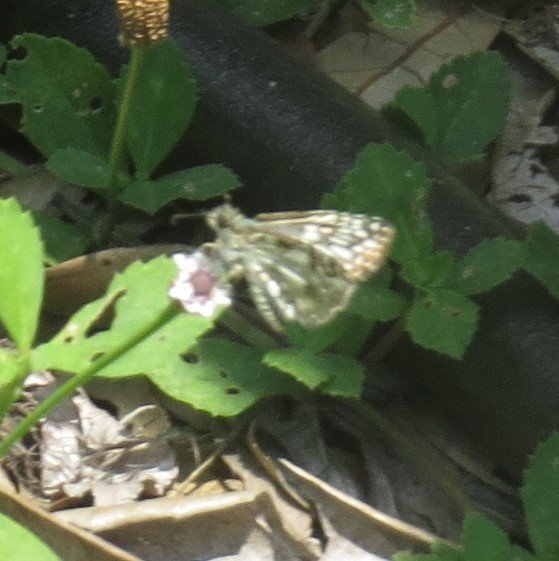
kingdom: Animalia
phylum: Arthropoda
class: Insecta
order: Lepidoptera
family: Hesperiidae
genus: Pyrgus
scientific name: Pyrgus oileus
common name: Tropical Checkered-Skipper
